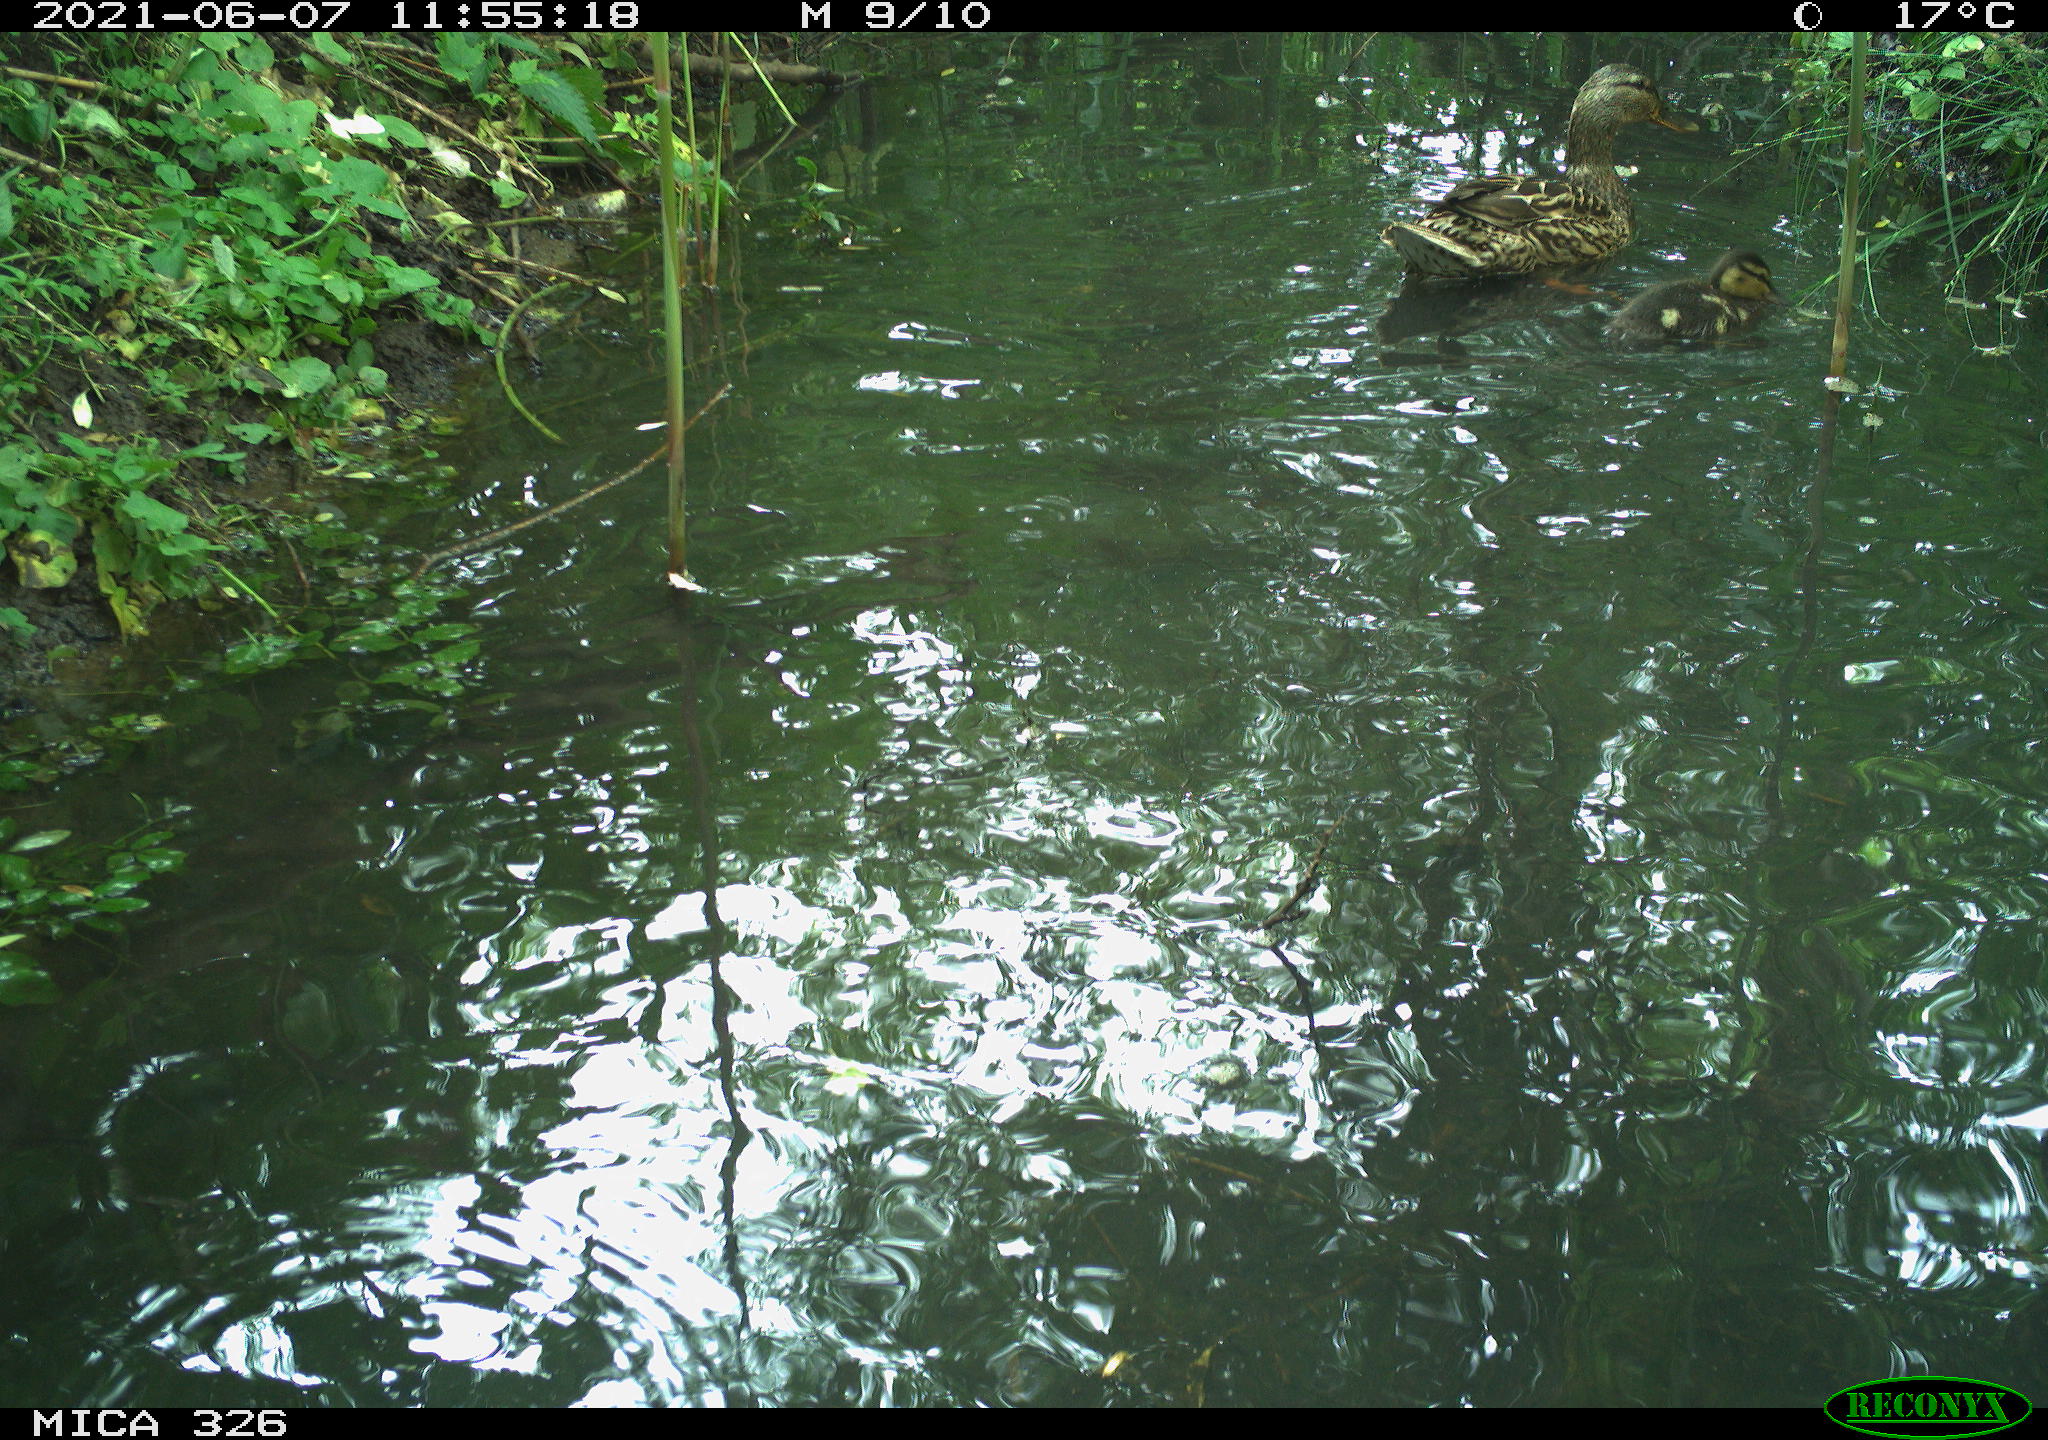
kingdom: Animalia
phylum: Chordata
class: Aves
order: Anseriformes
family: Anatidae
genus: Anas
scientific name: Anas platyrhynchos
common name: Mallard
